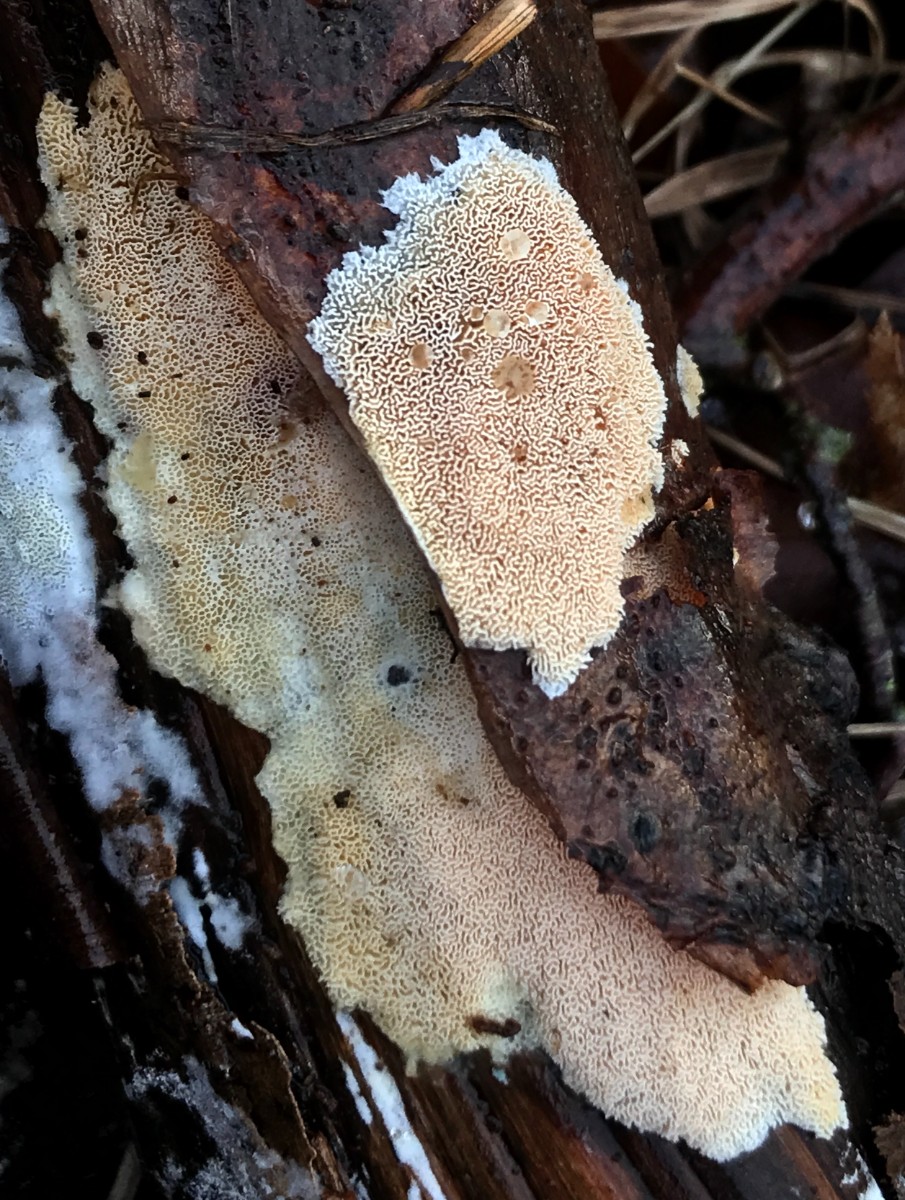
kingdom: Fungi
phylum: Basidiomycota
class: Agaricomycetes
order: Polyporales
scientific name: Polyporales
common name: poresvampordenen
